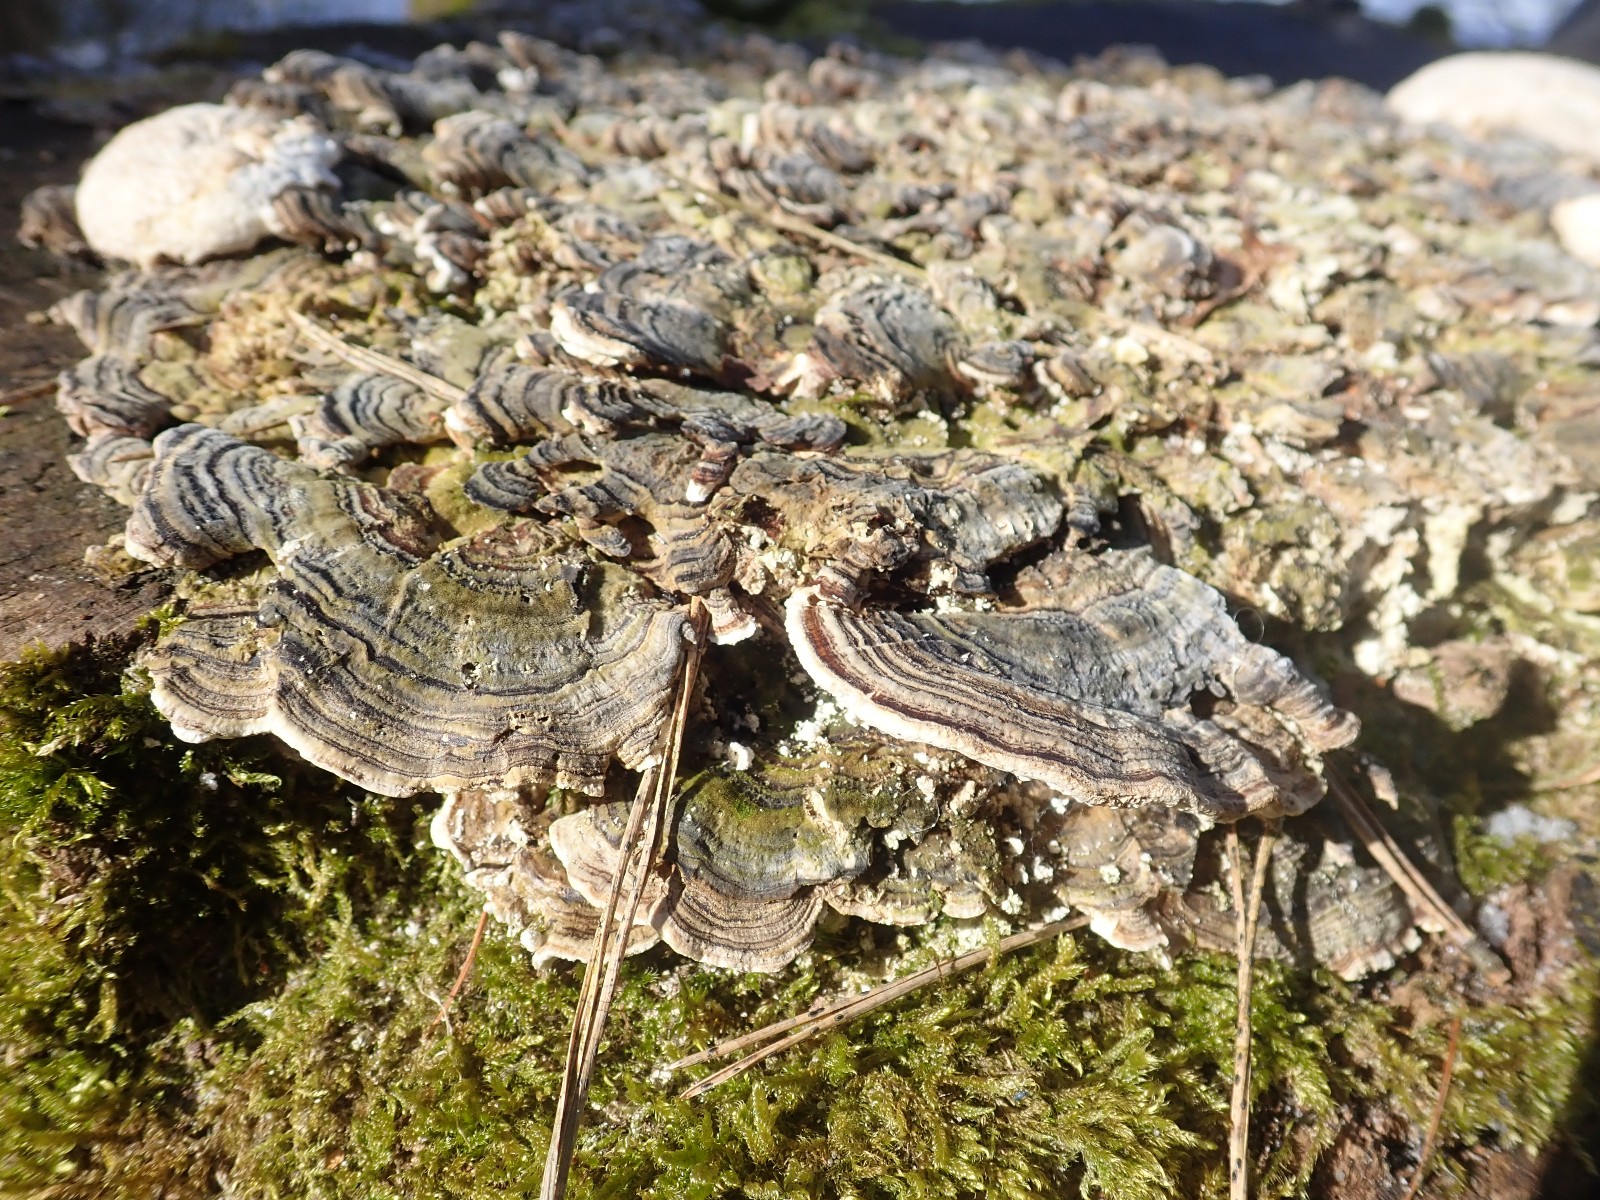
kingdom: Fungi
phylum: Basidiomycota
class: Agaricomycetes
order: Polyporales
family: Polyporaceae
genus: Trametes
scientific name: Trametes versicolor
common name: broget læderporesvamp
